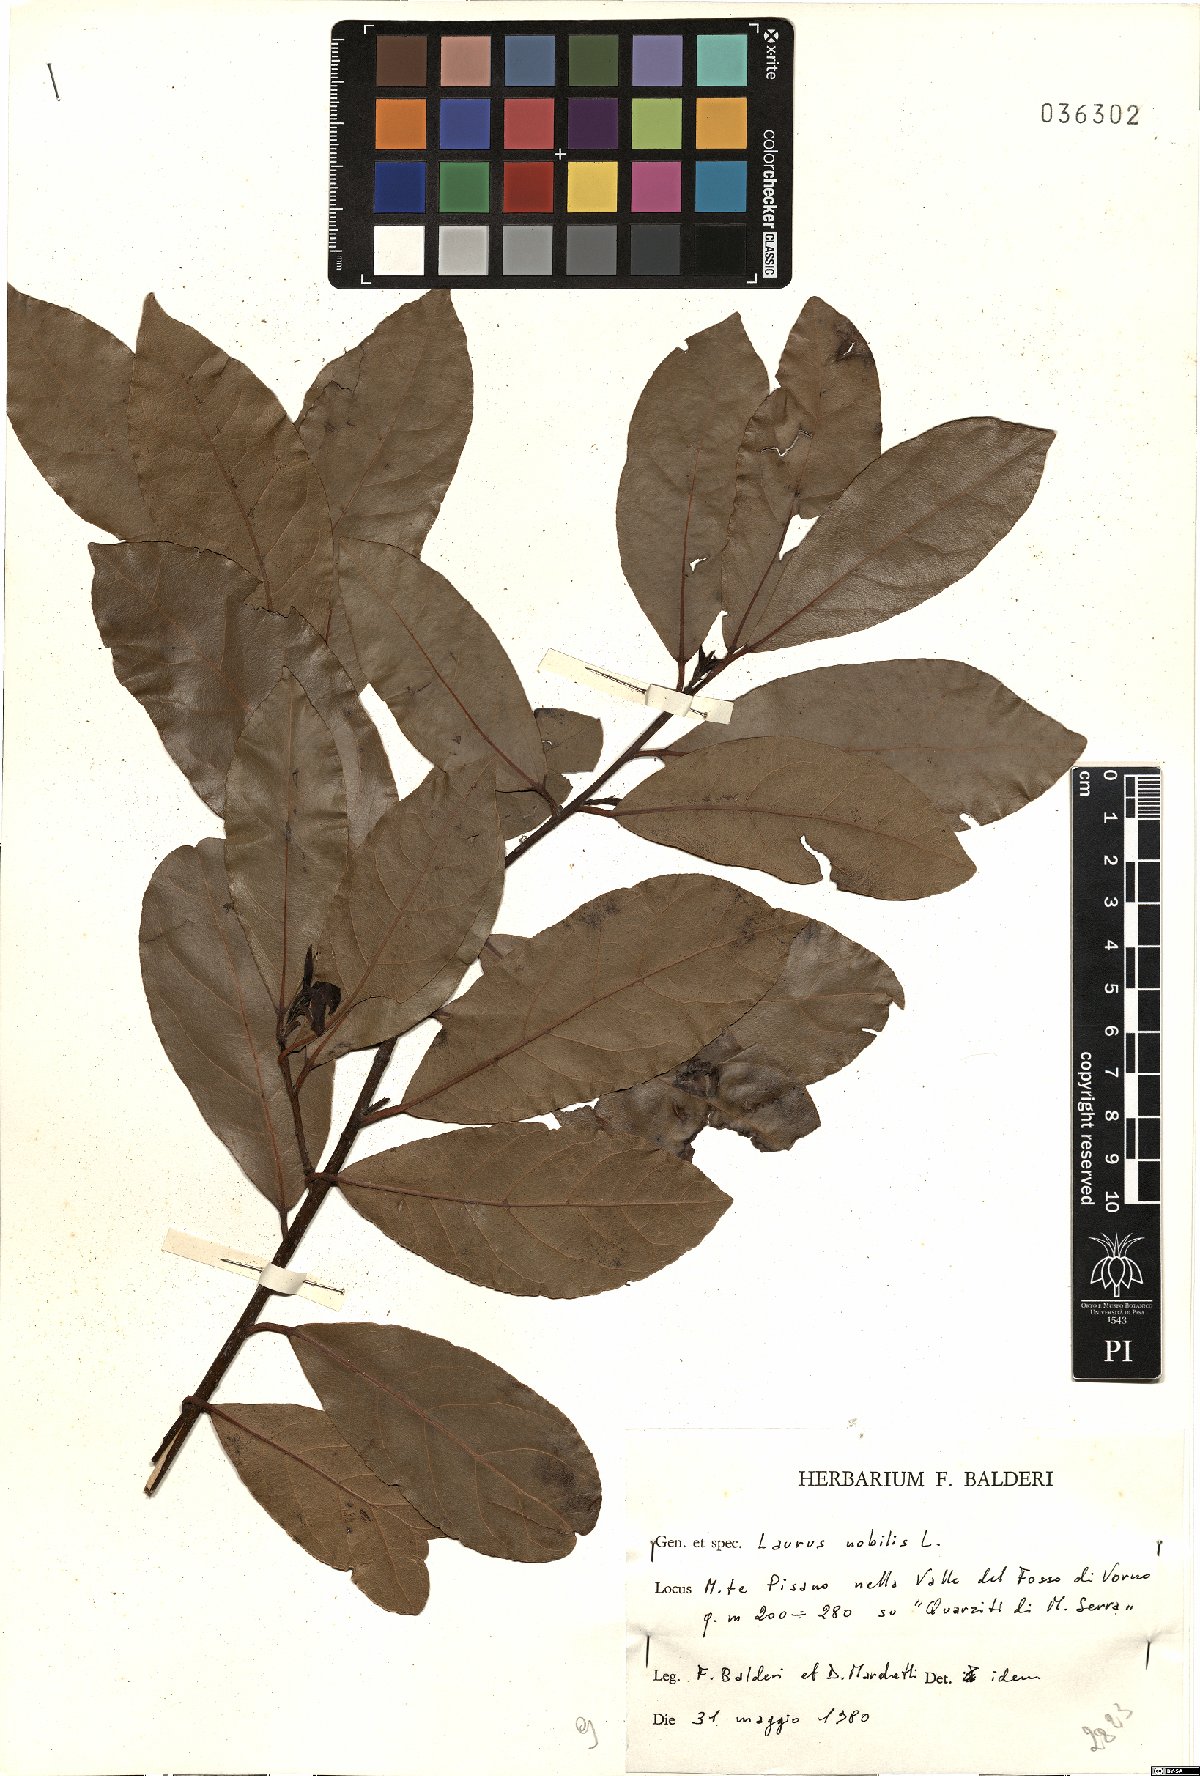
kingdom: Plantae
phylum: Tracheophyta
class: Magnoliopsida
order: Laurales
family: Lauraceae
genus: Laurus
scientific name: Laurus nobilis
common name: Bay
